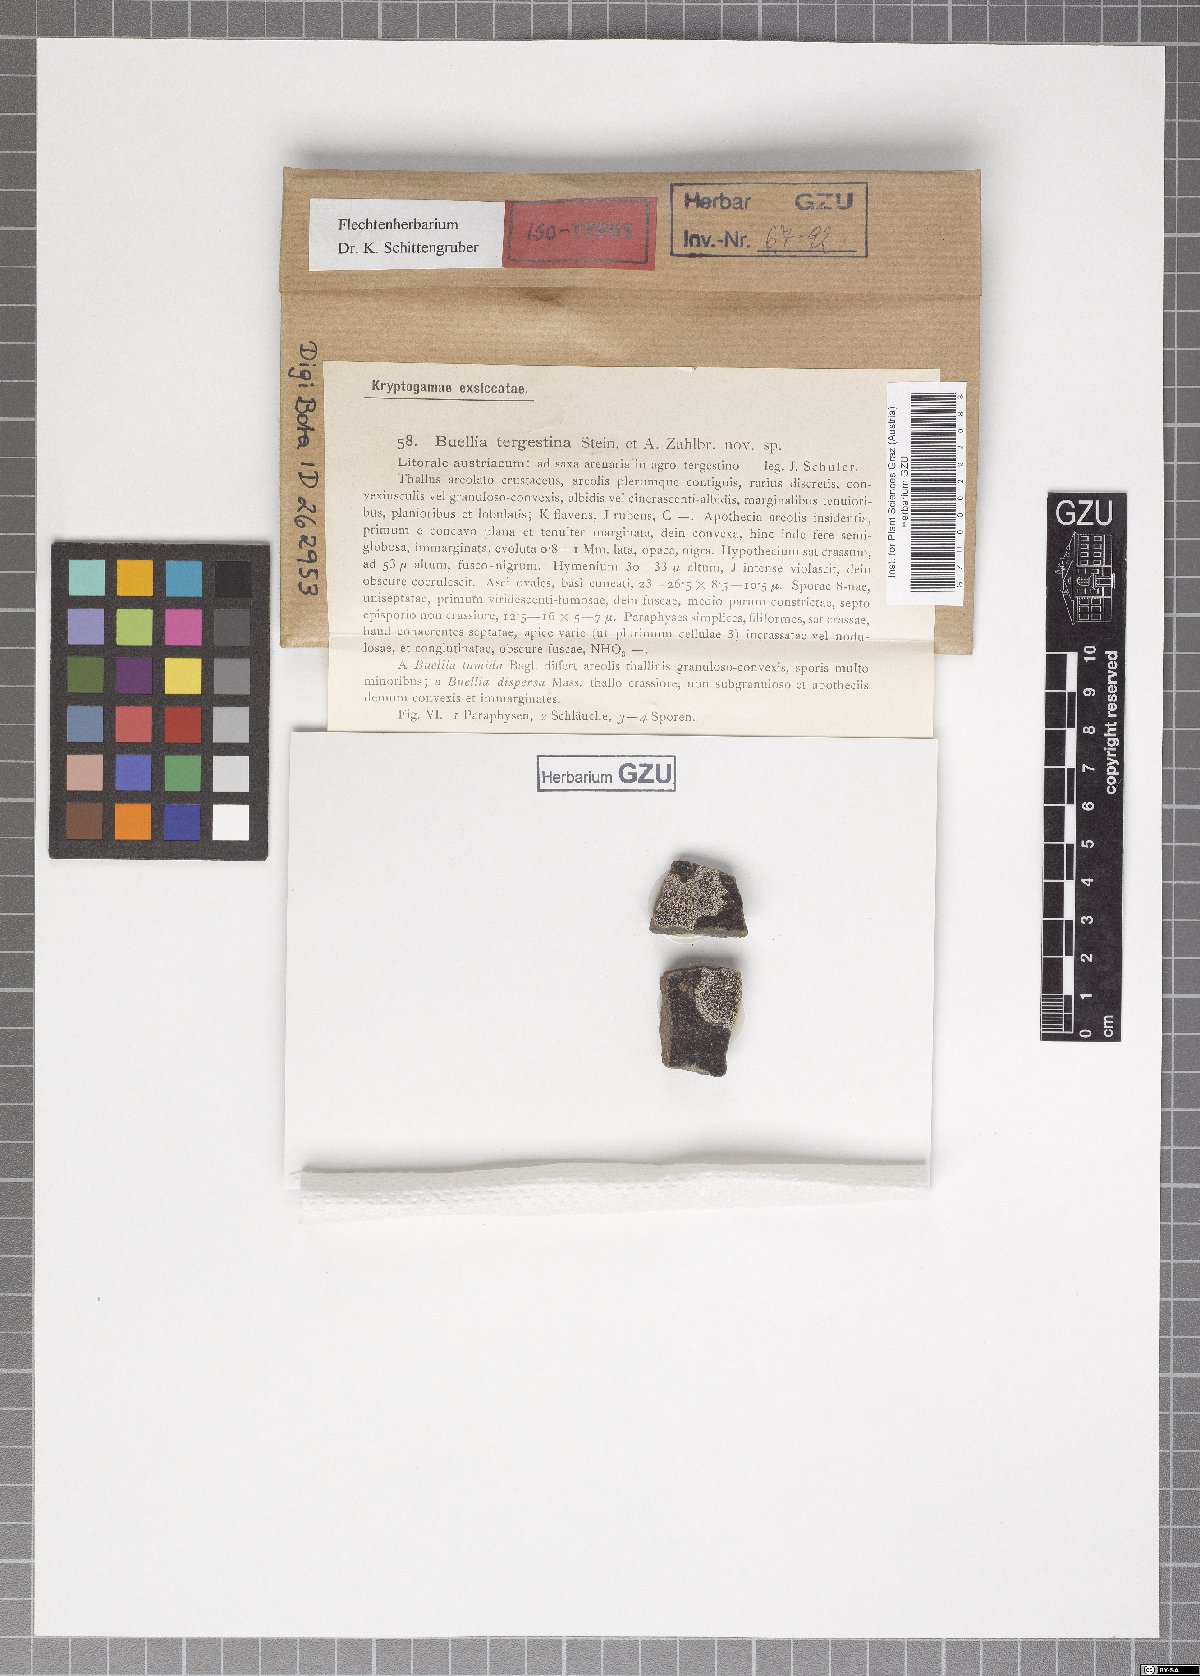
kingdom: Fungi
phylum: Ascomycota
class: Lecanoromycetes
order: Caliciales
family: Caliciaceae
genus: Buellia
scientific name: Buellia dispersa
